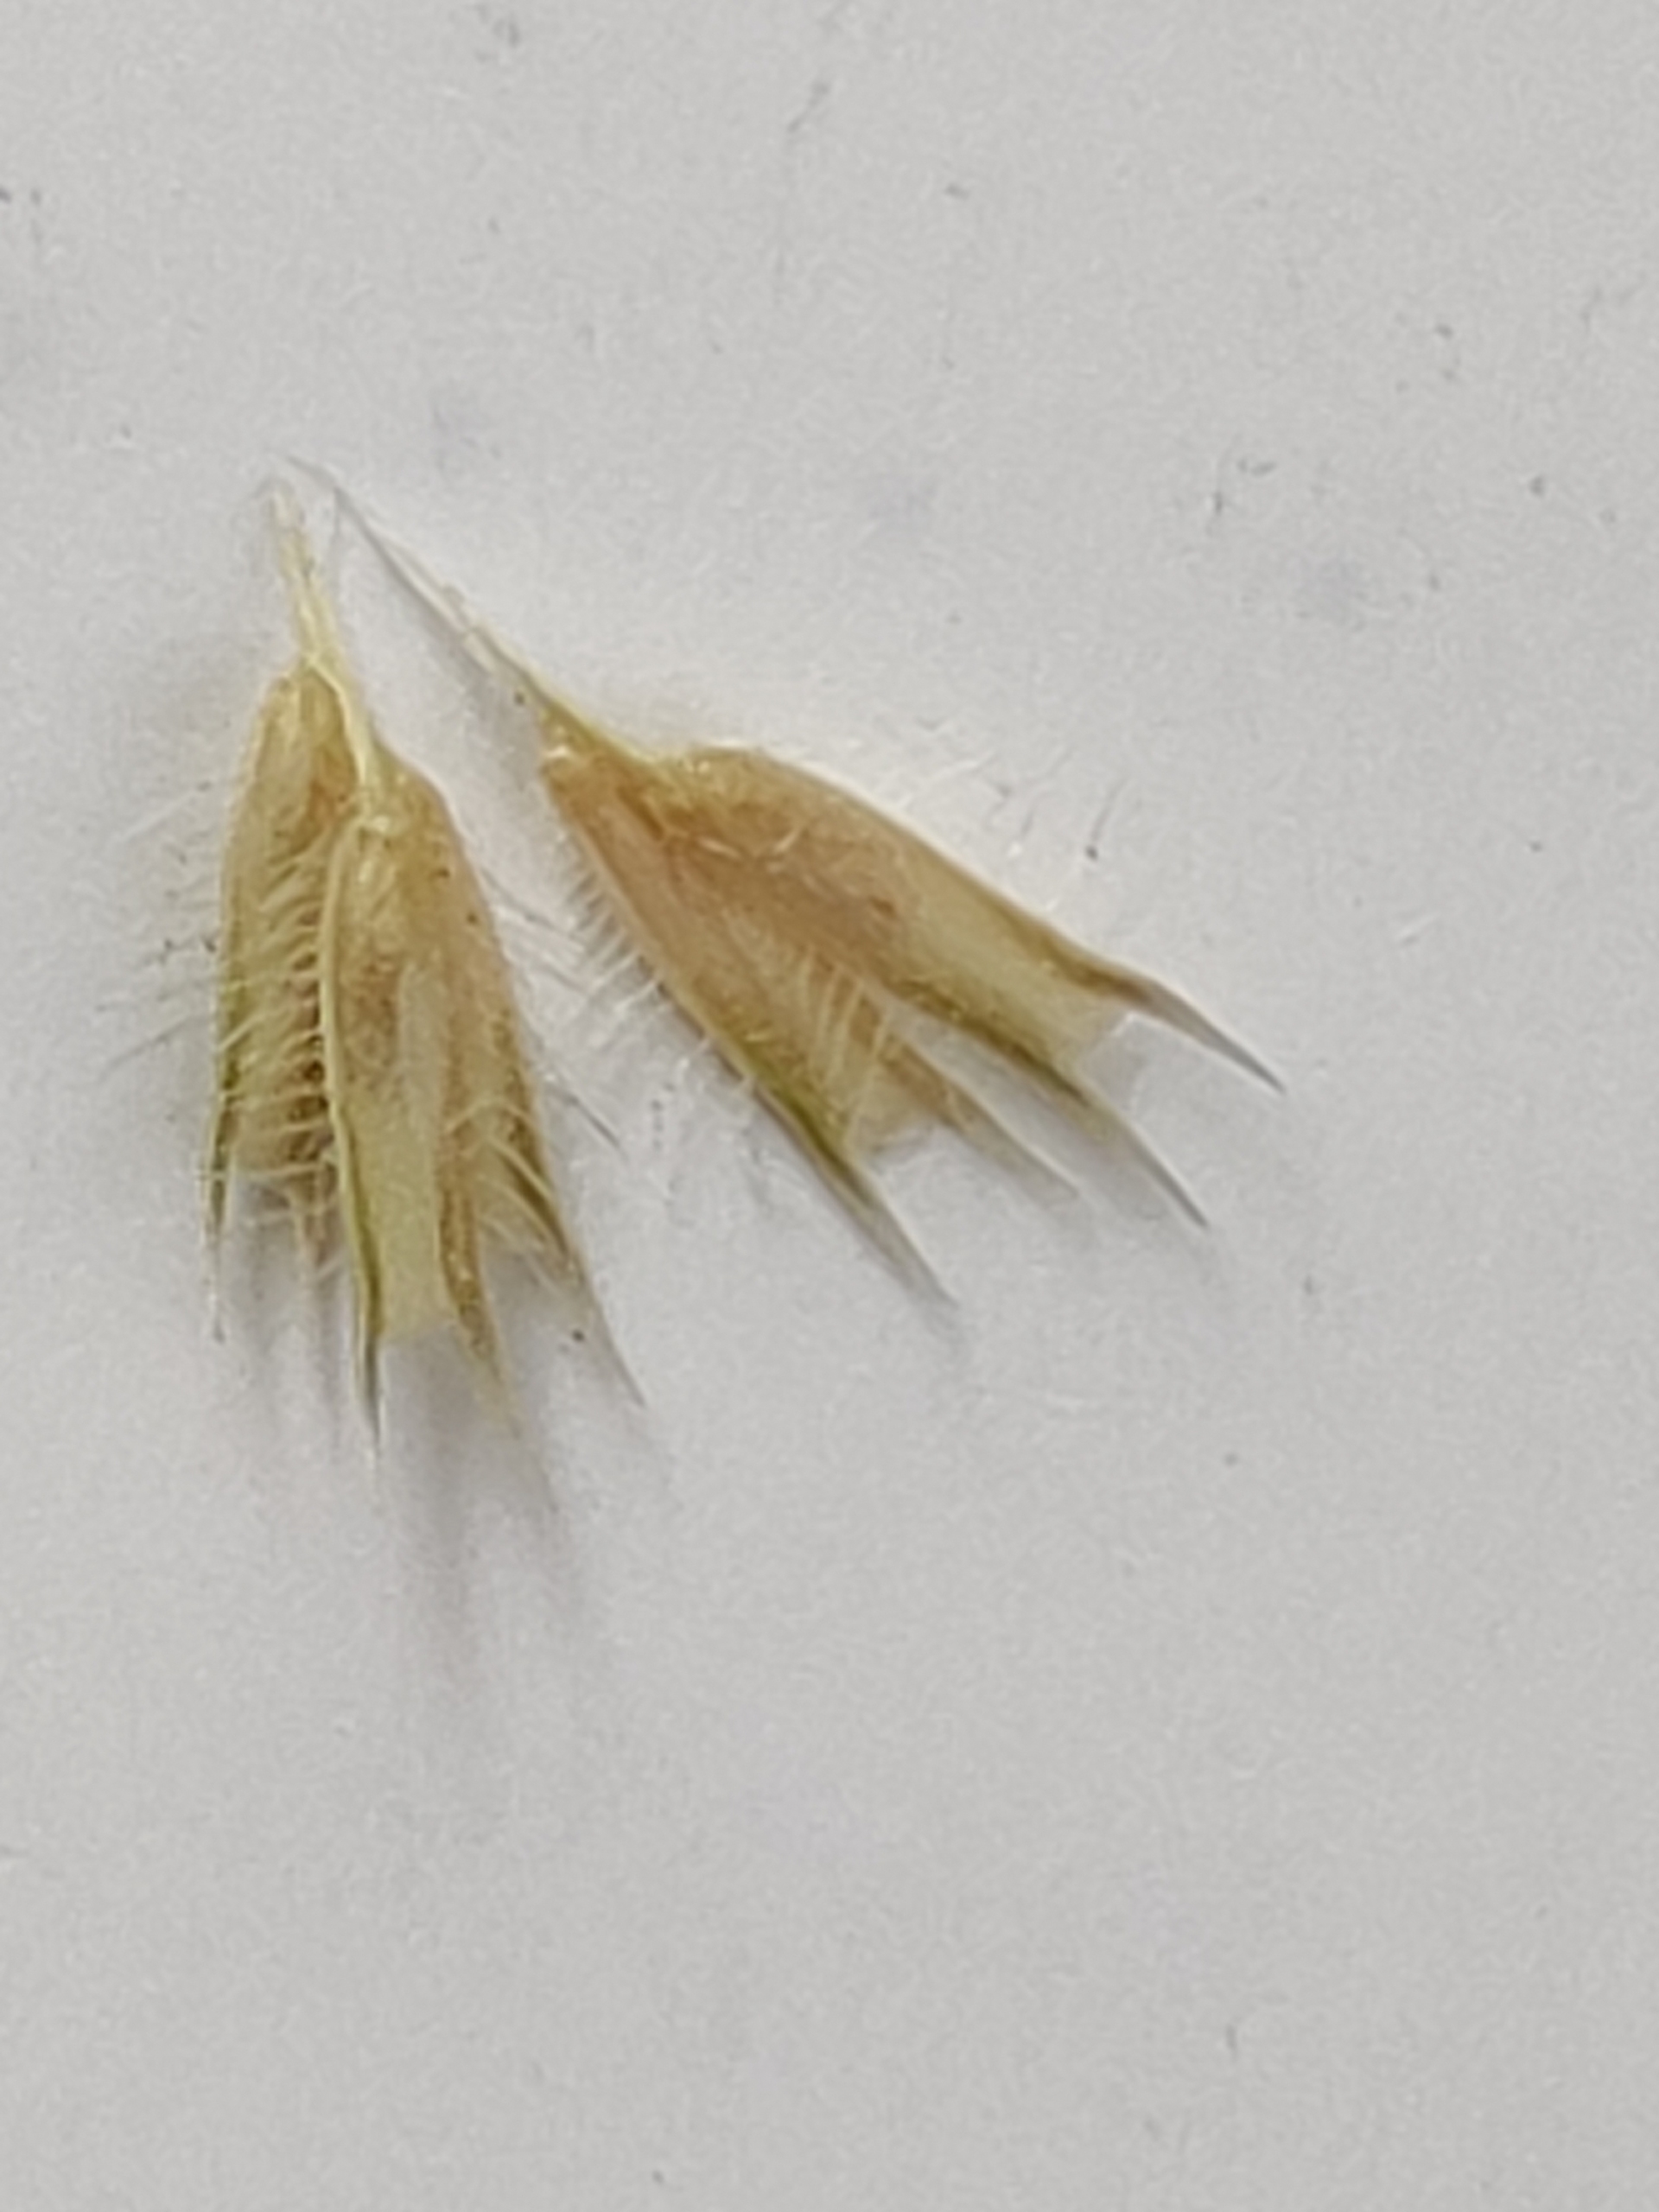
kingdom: Plantae
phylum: Tracheophyta
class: Liliopsida
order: Poales
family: Poaceae
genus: Phleum
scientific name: Phleum pratense
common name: Eng-rottehale
